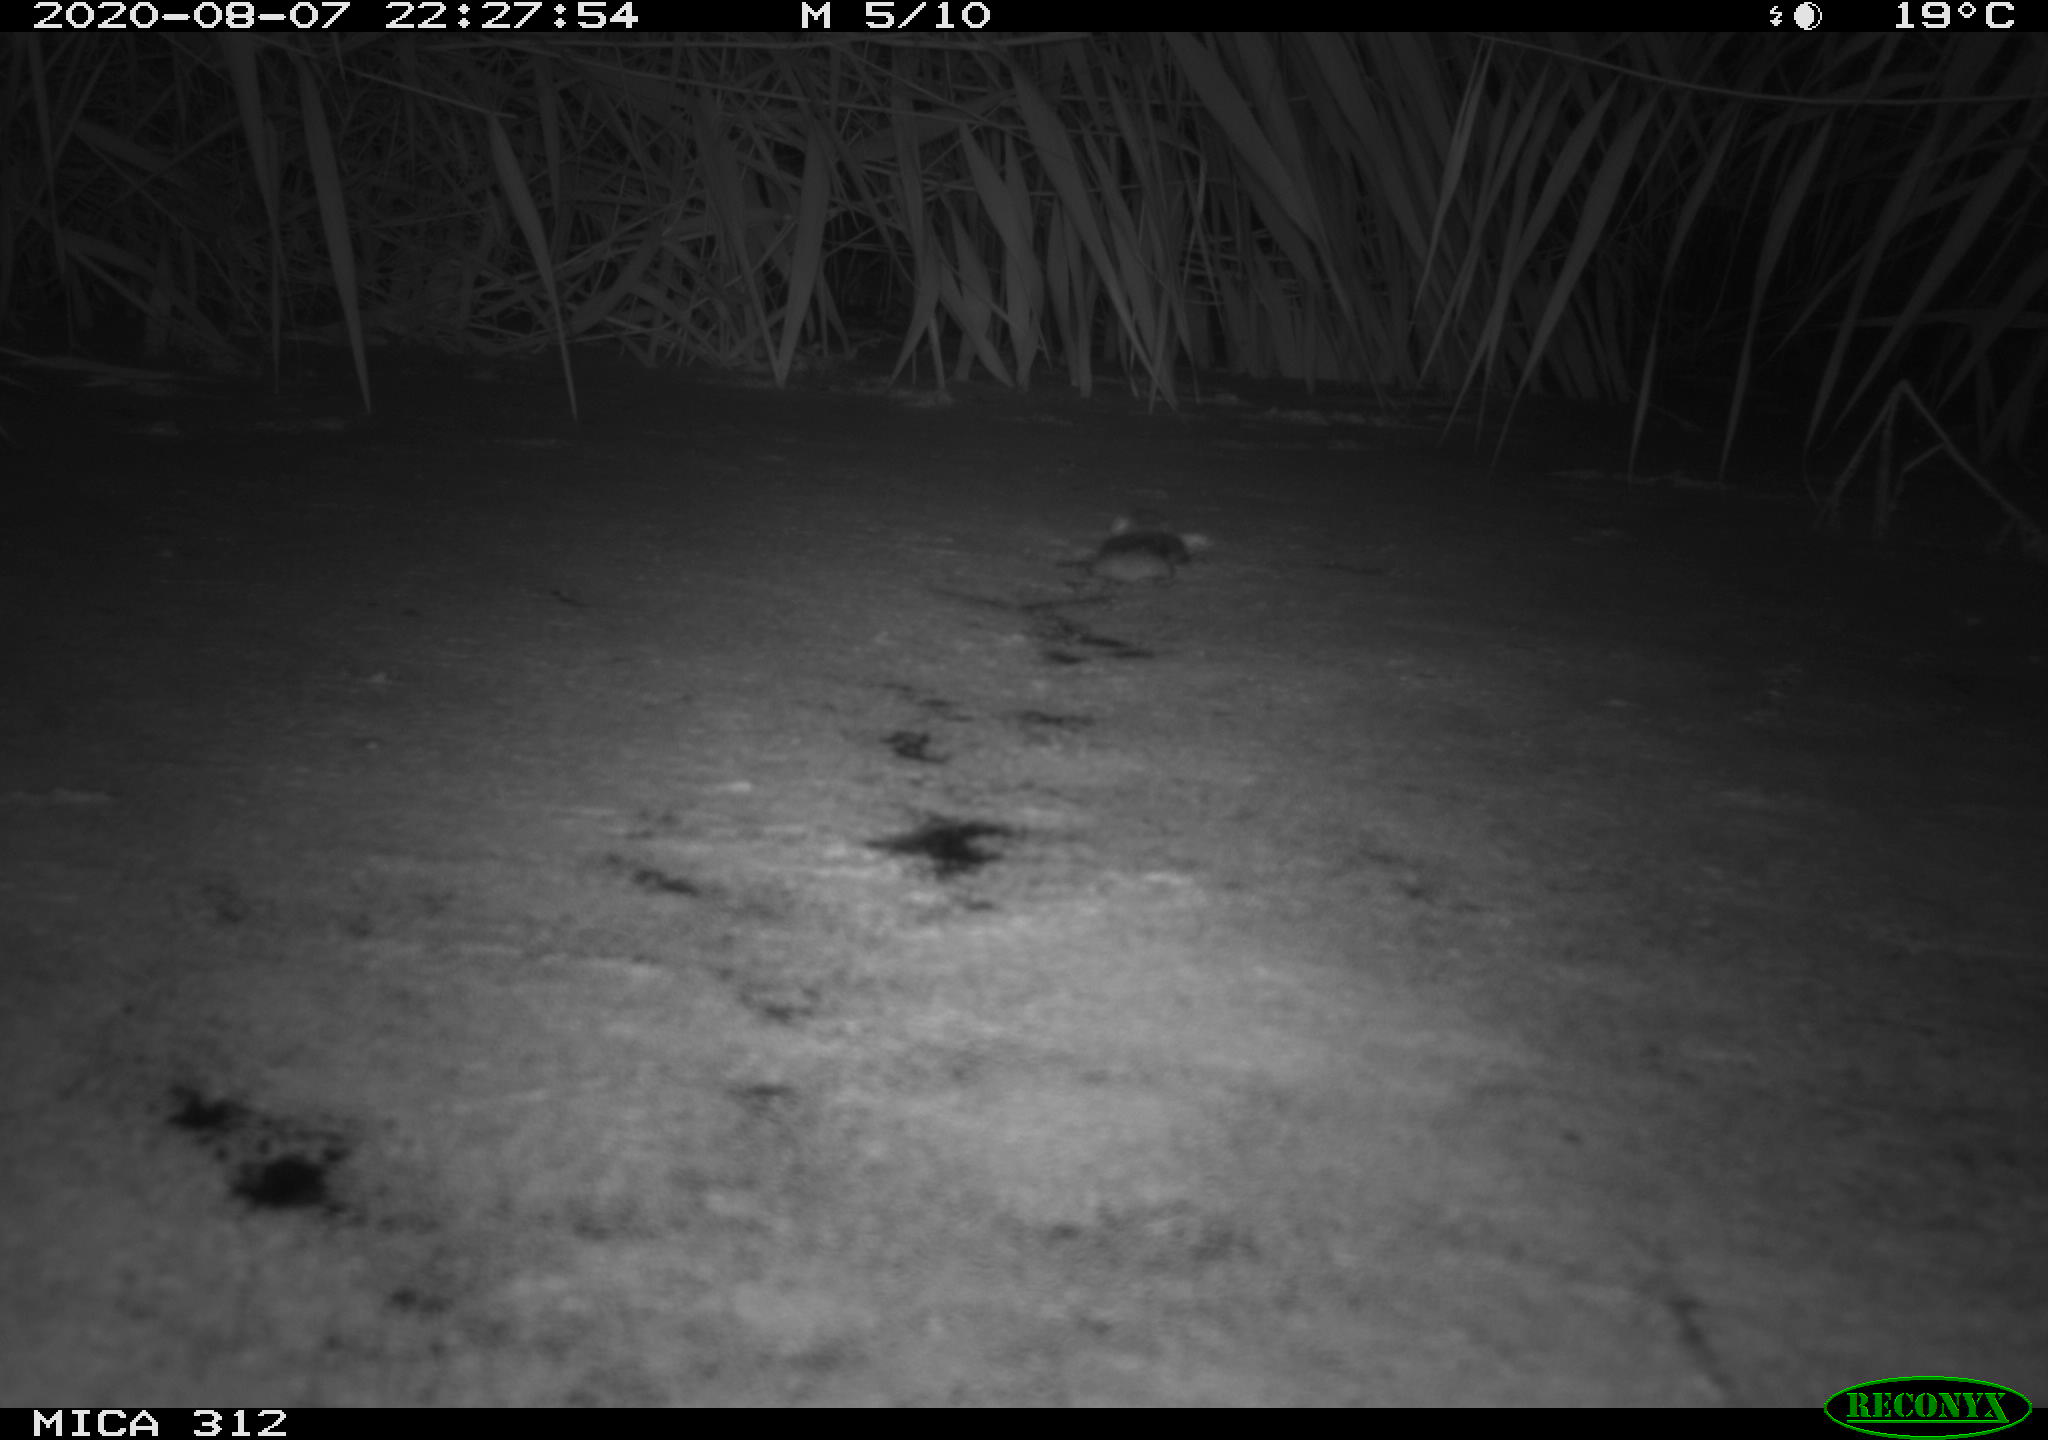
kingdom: Animalia
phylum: Chordata
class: Mammalia
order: Rodentia
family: Cricetidae
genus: Ondatra
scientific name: Ondatra zibethicus
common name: Muskrat
